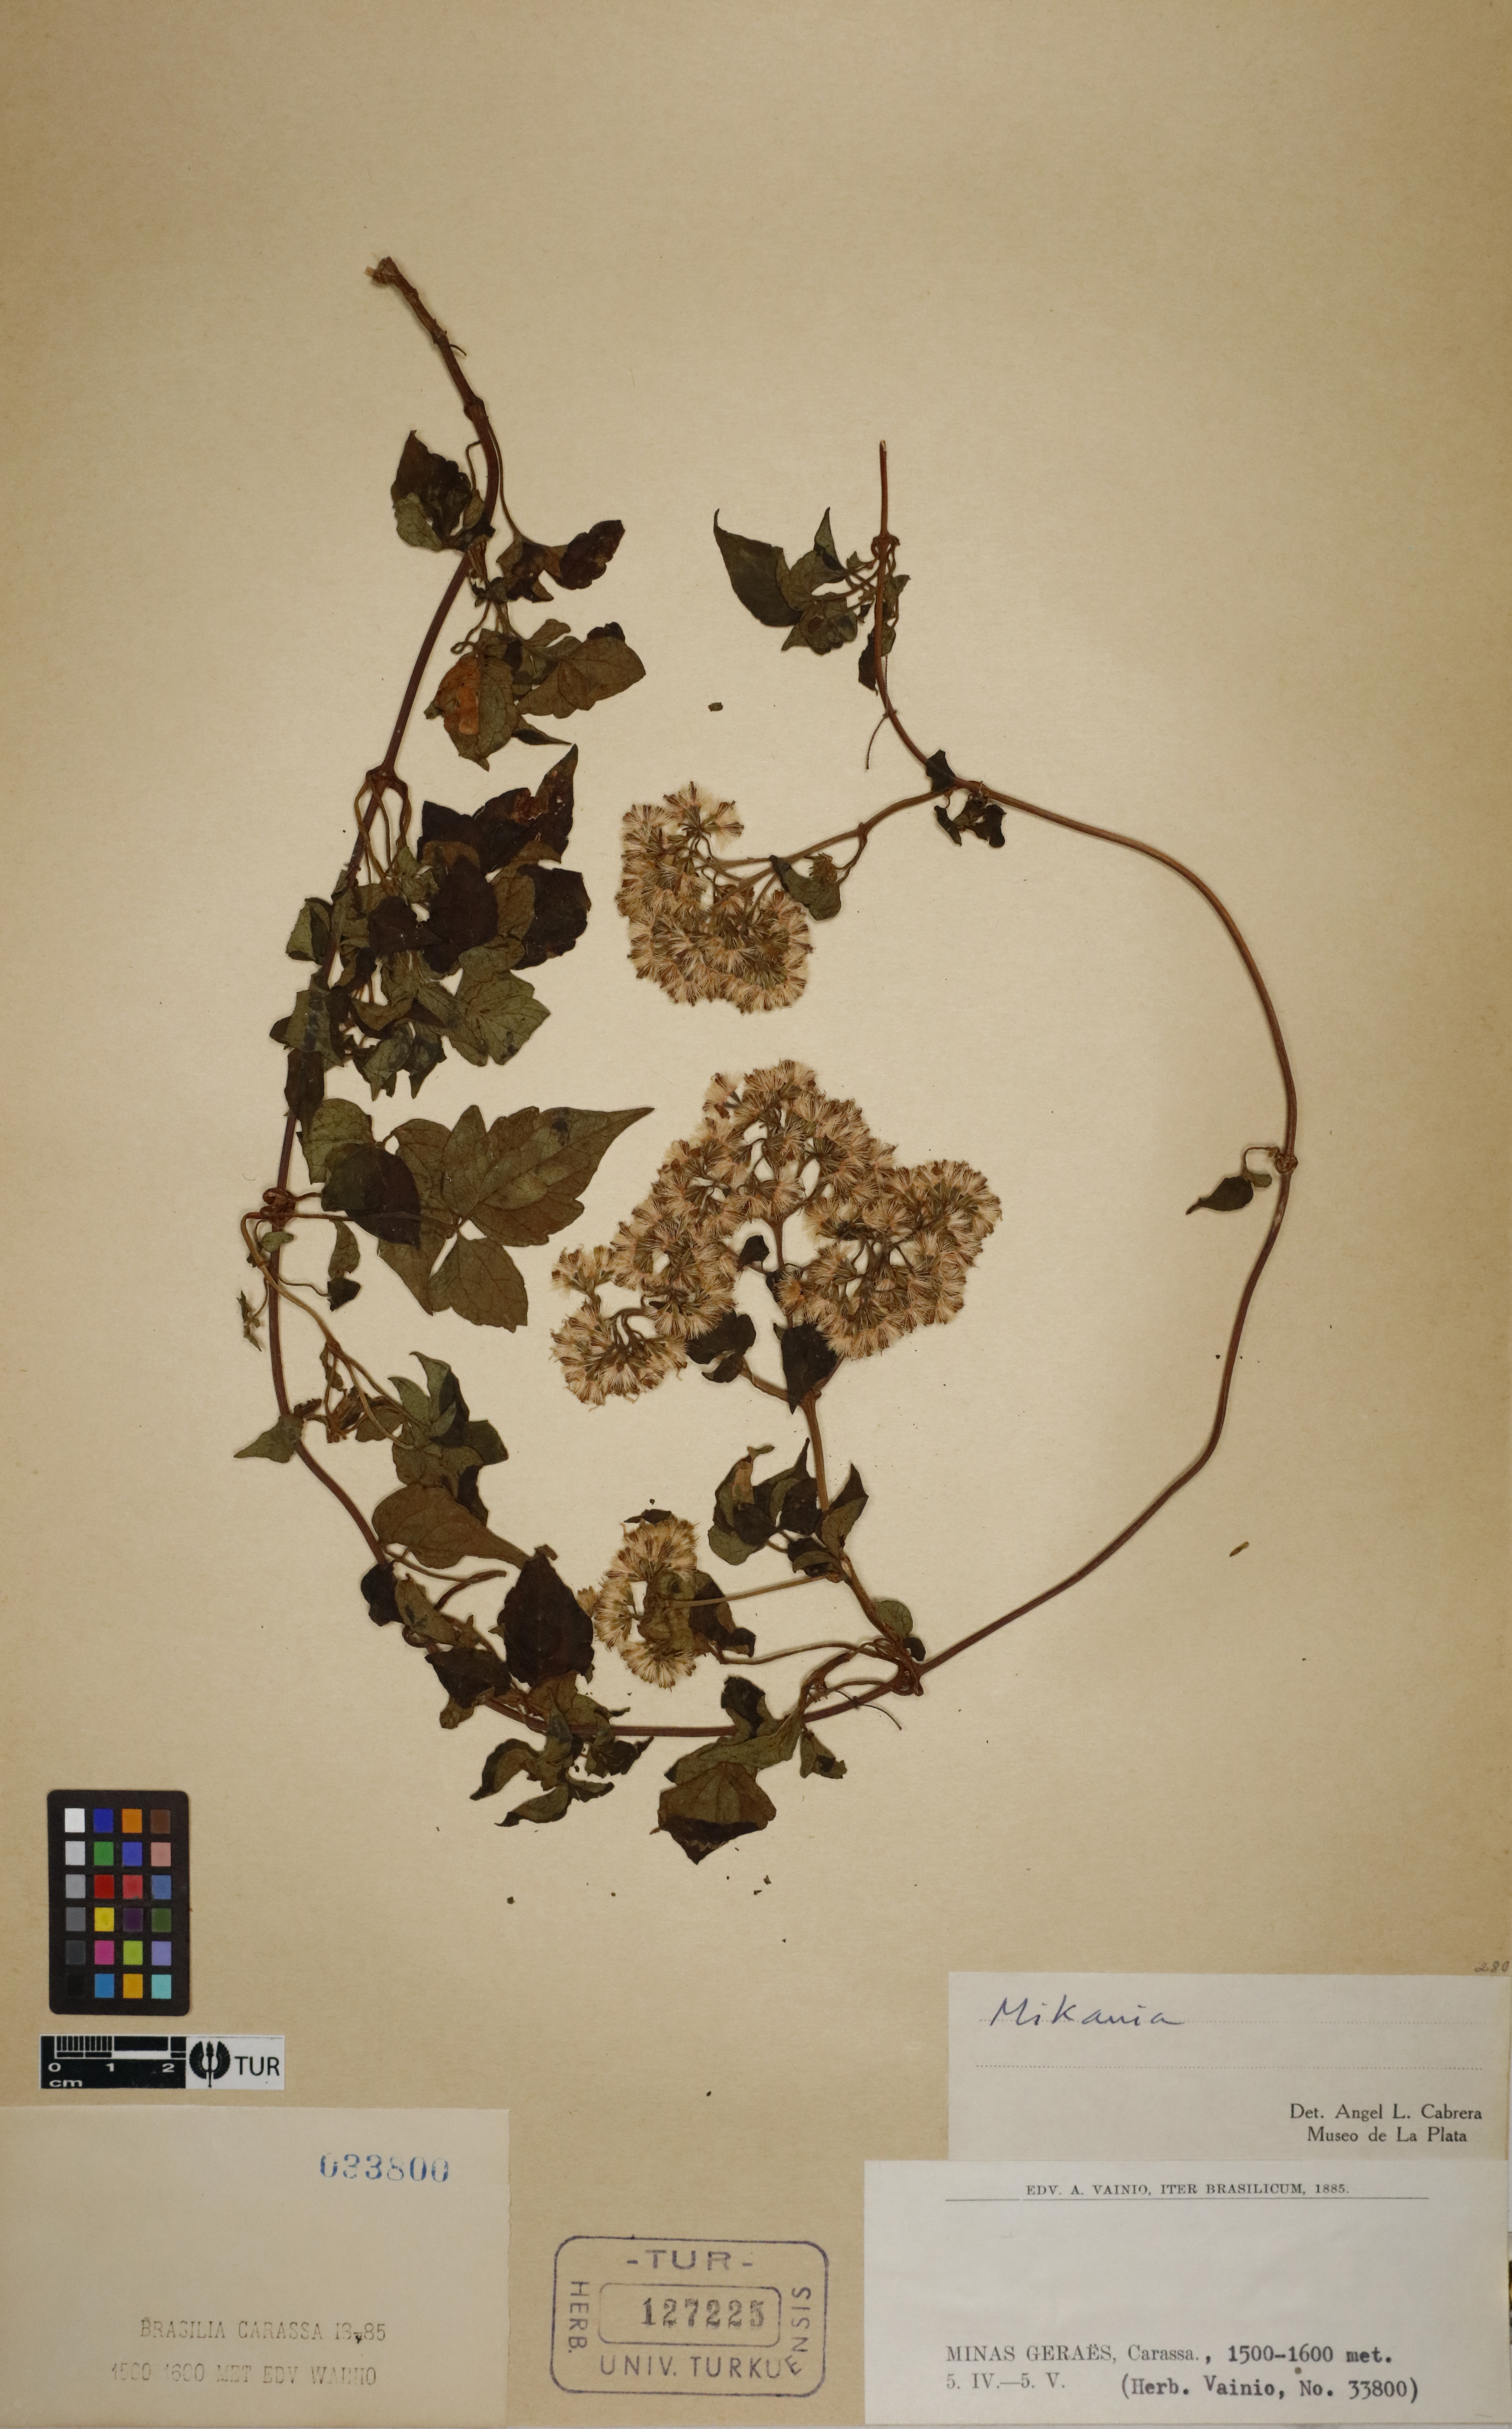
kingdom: Plantae
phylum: Tracheophyta
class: Magnoliopsida
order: Asterales
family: Asteraceae
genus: Mikania
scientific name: Mikania
